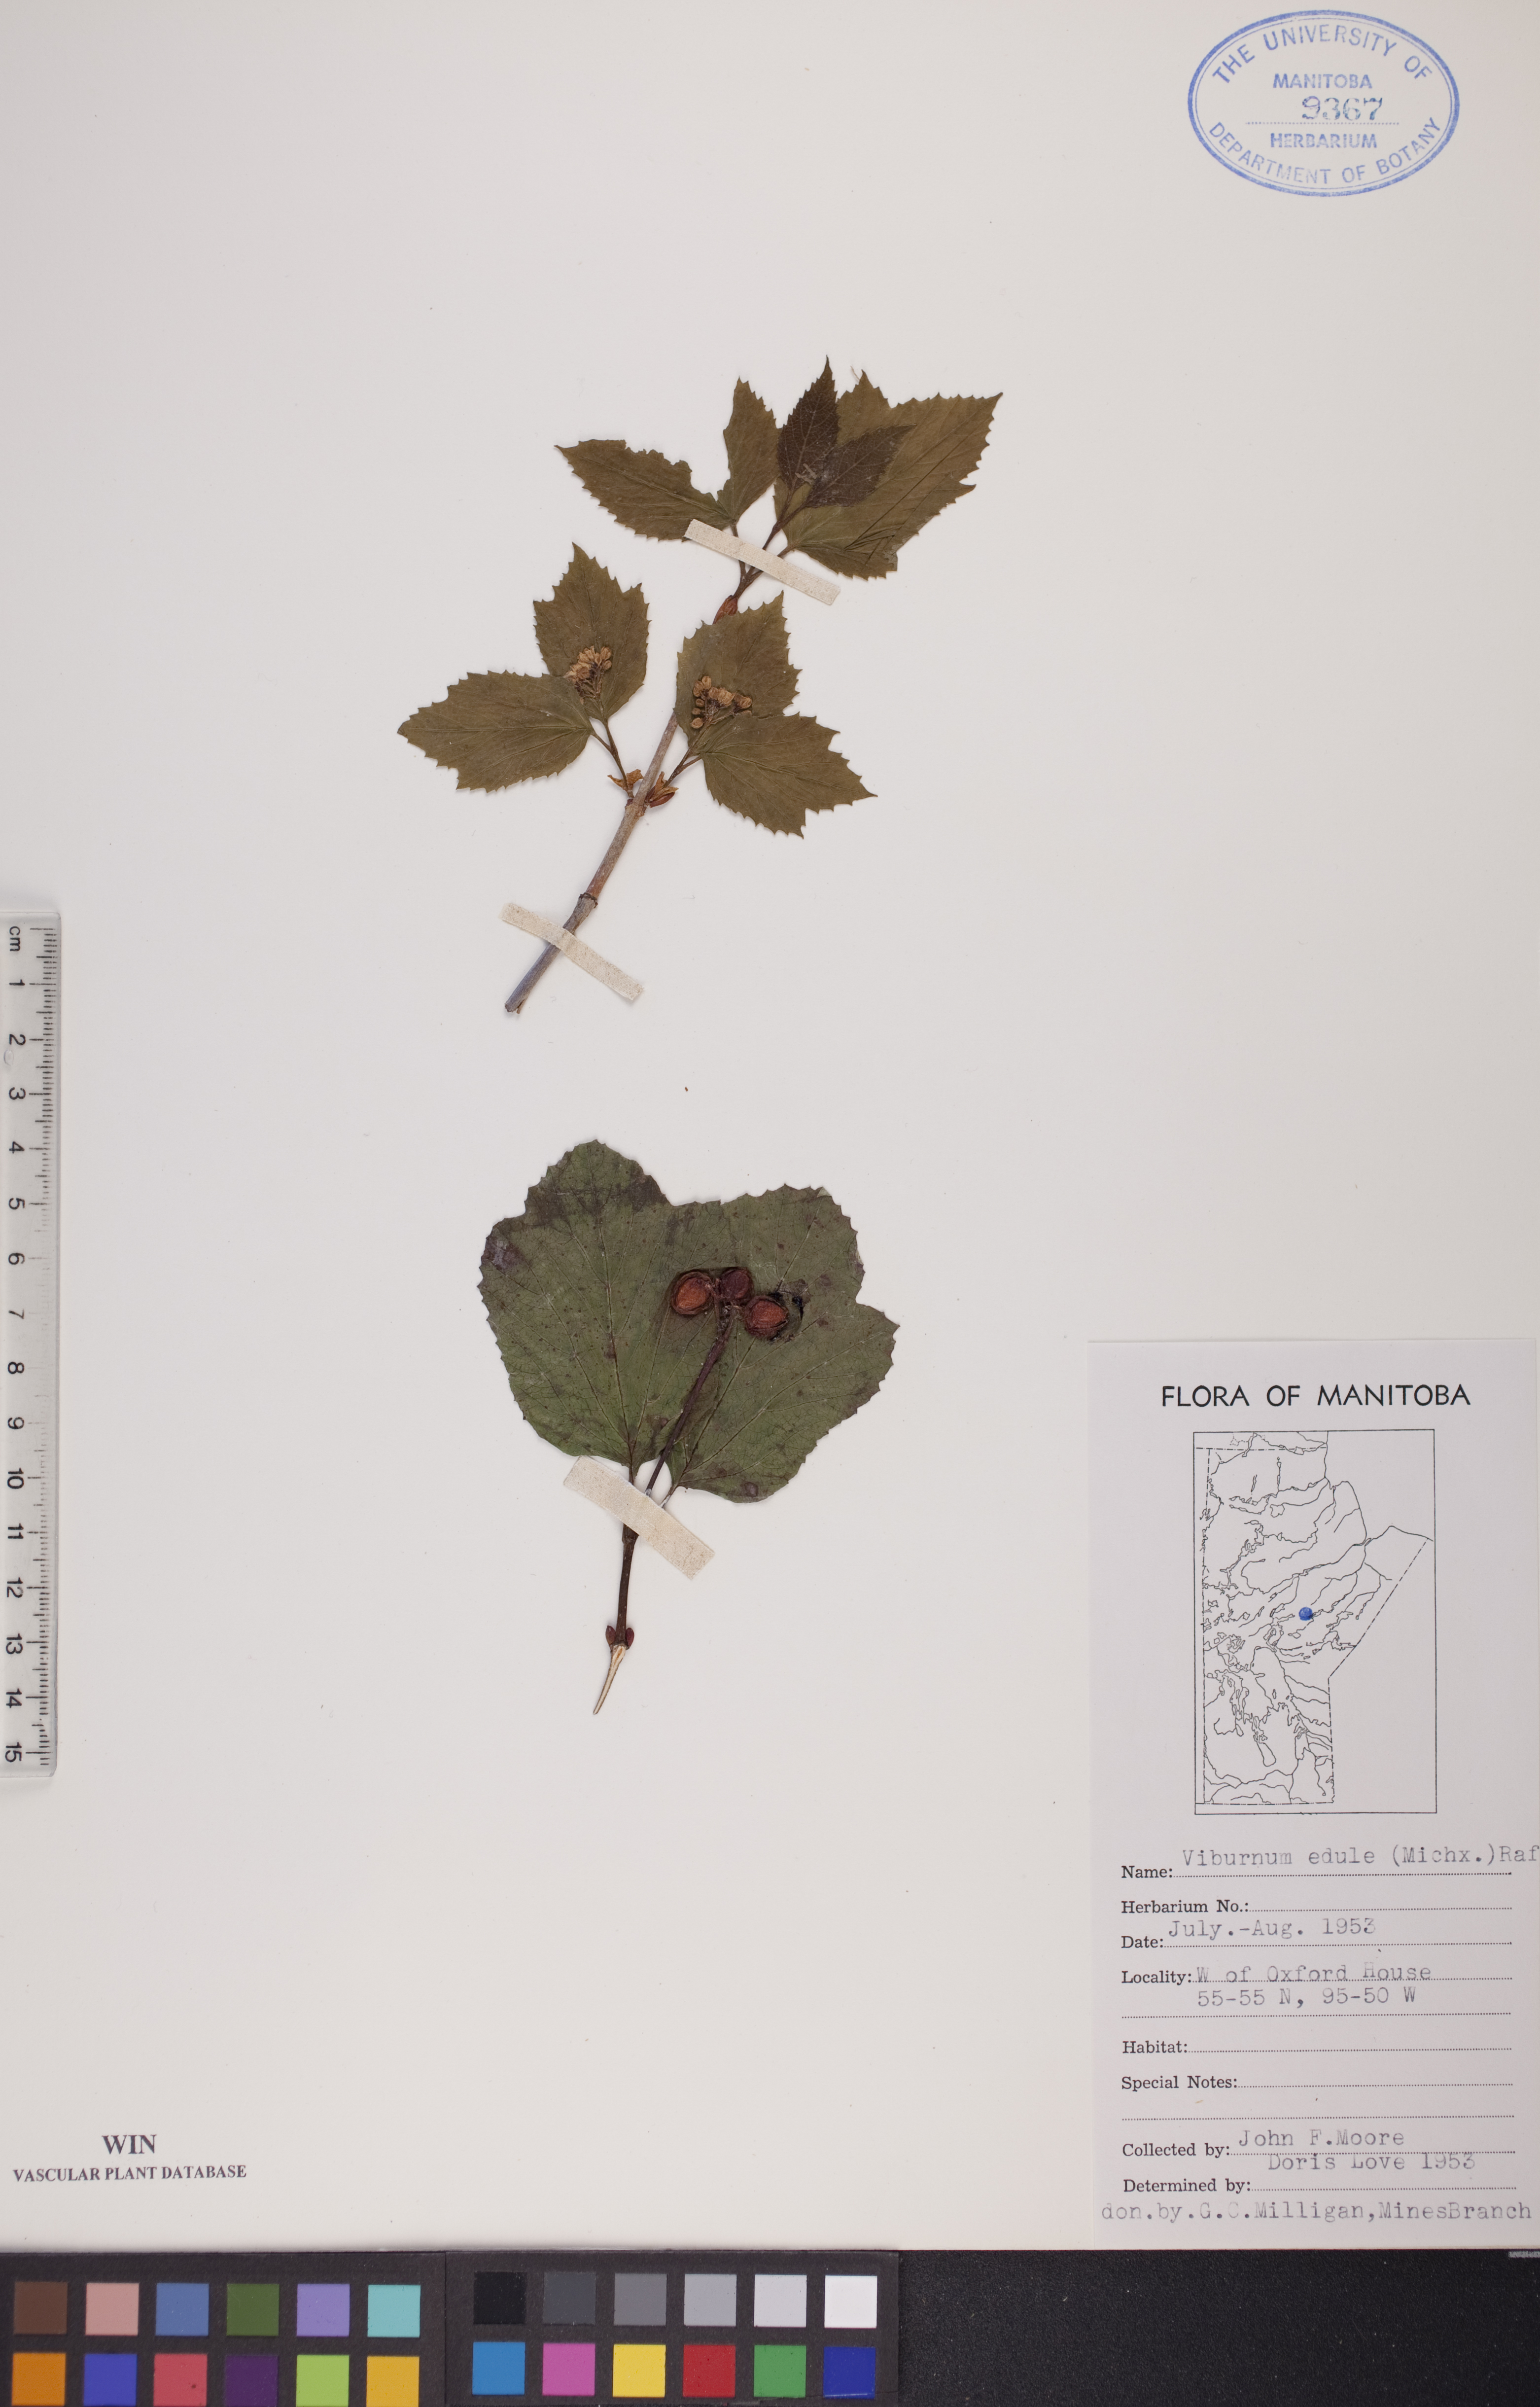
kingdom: Plantae
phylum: Tracheophyta
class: Magnoliopsida
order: Dipsacales
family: Viburnaceae
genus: Viburnum
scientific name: Viburnum edule
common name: Mooseberry
